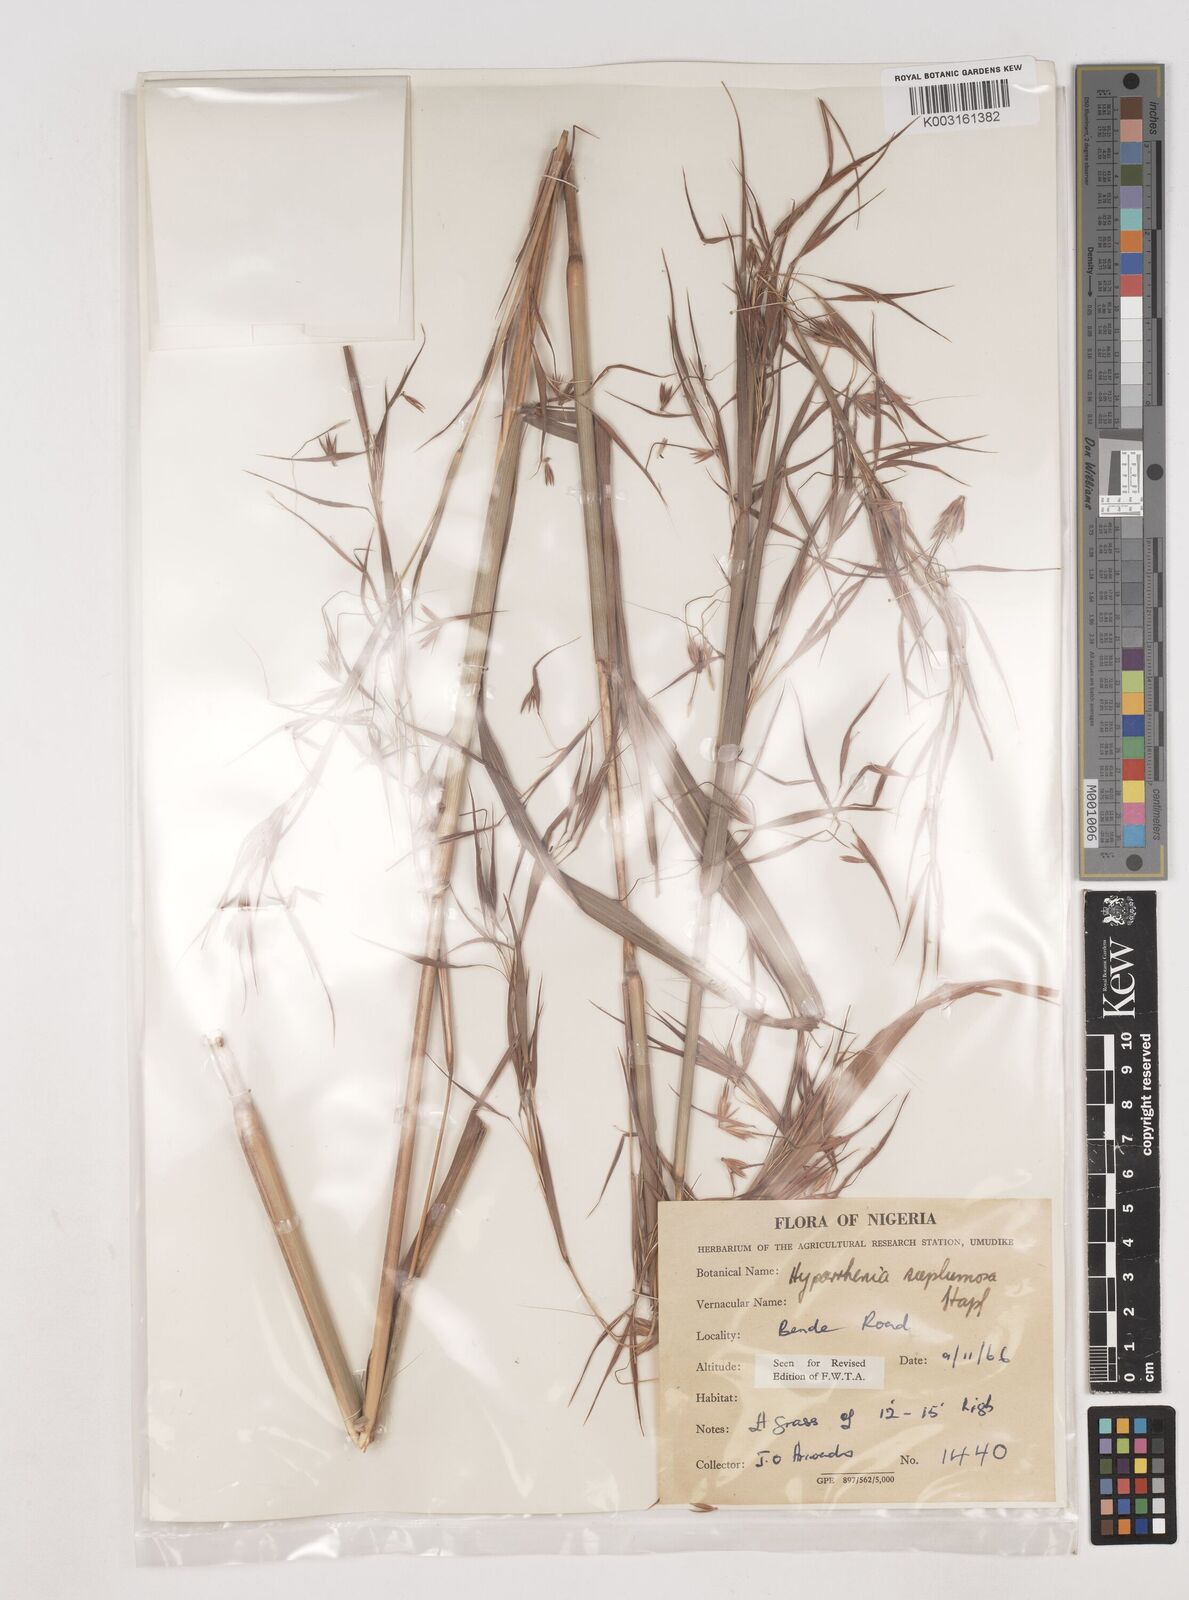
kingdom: Plantae
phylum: Tracheophyta
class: Liliopsida
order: Poales
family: Poaceae
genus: Hyparrhenia
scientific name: Hyparrhenia subplumosa
